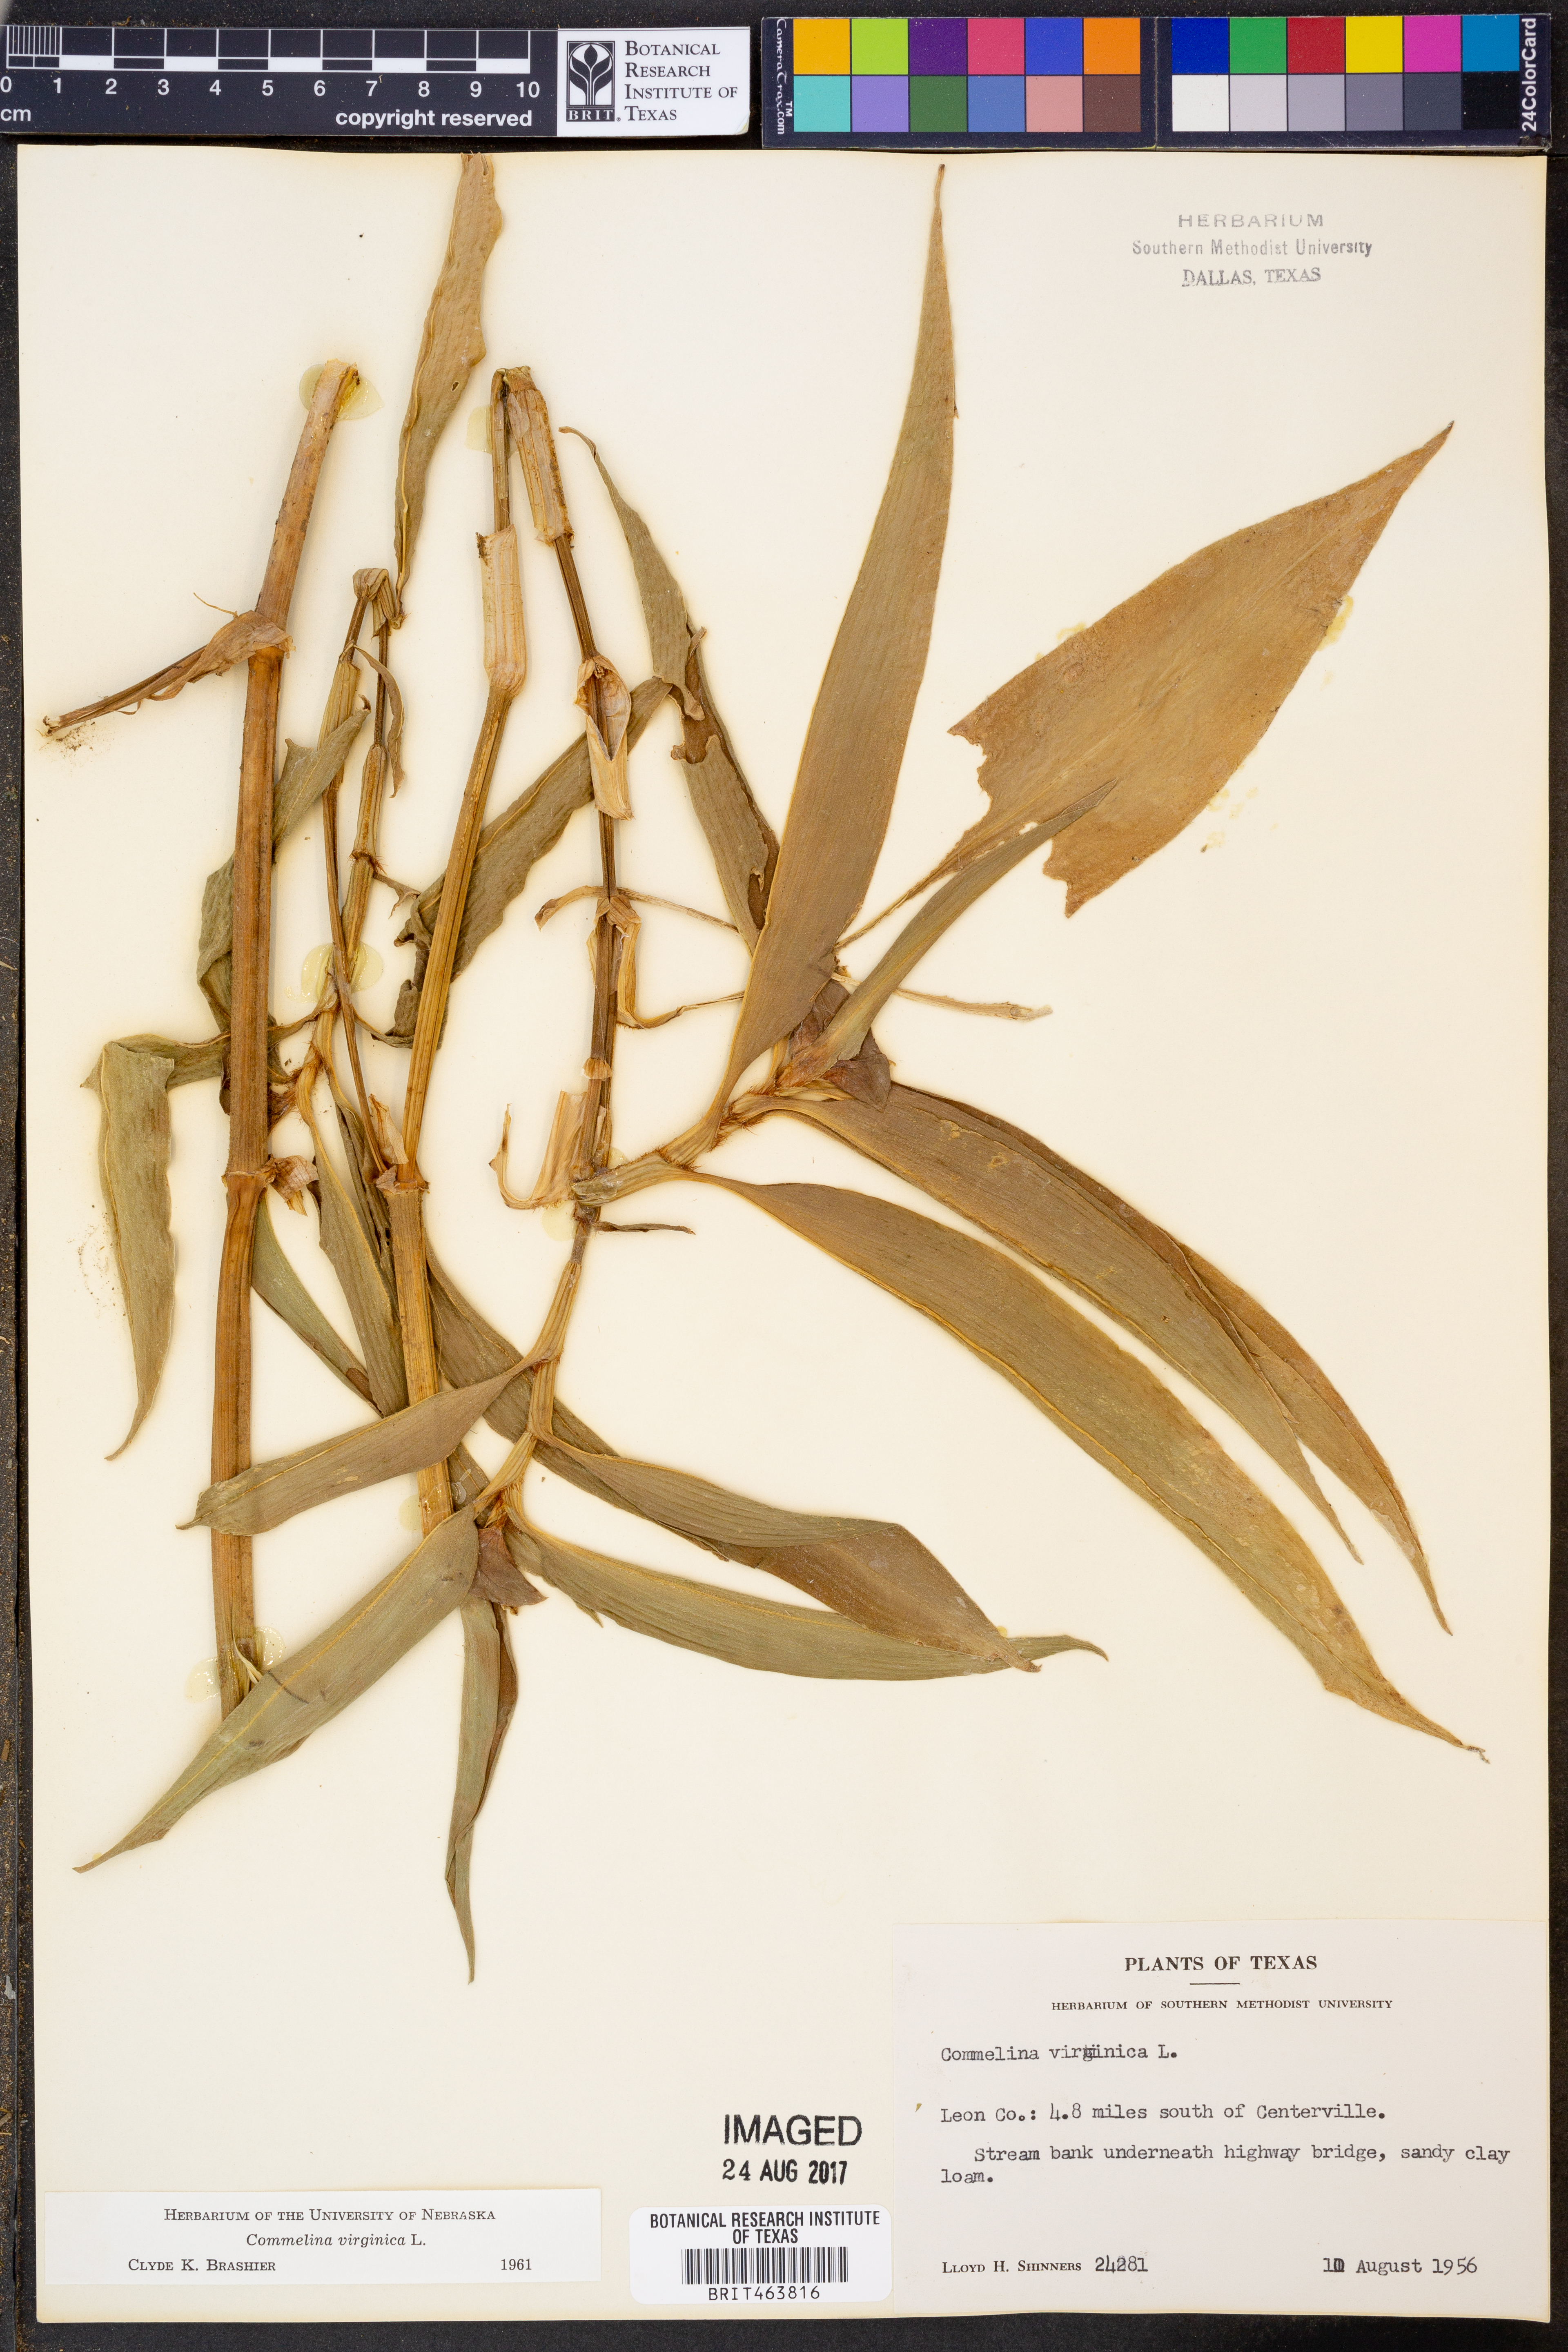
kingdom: Plantae
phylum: Tracheophyta
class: Liliopsida
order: Commelinales
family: Commelinaceae
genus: Commelina
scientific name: Commelina virginica
